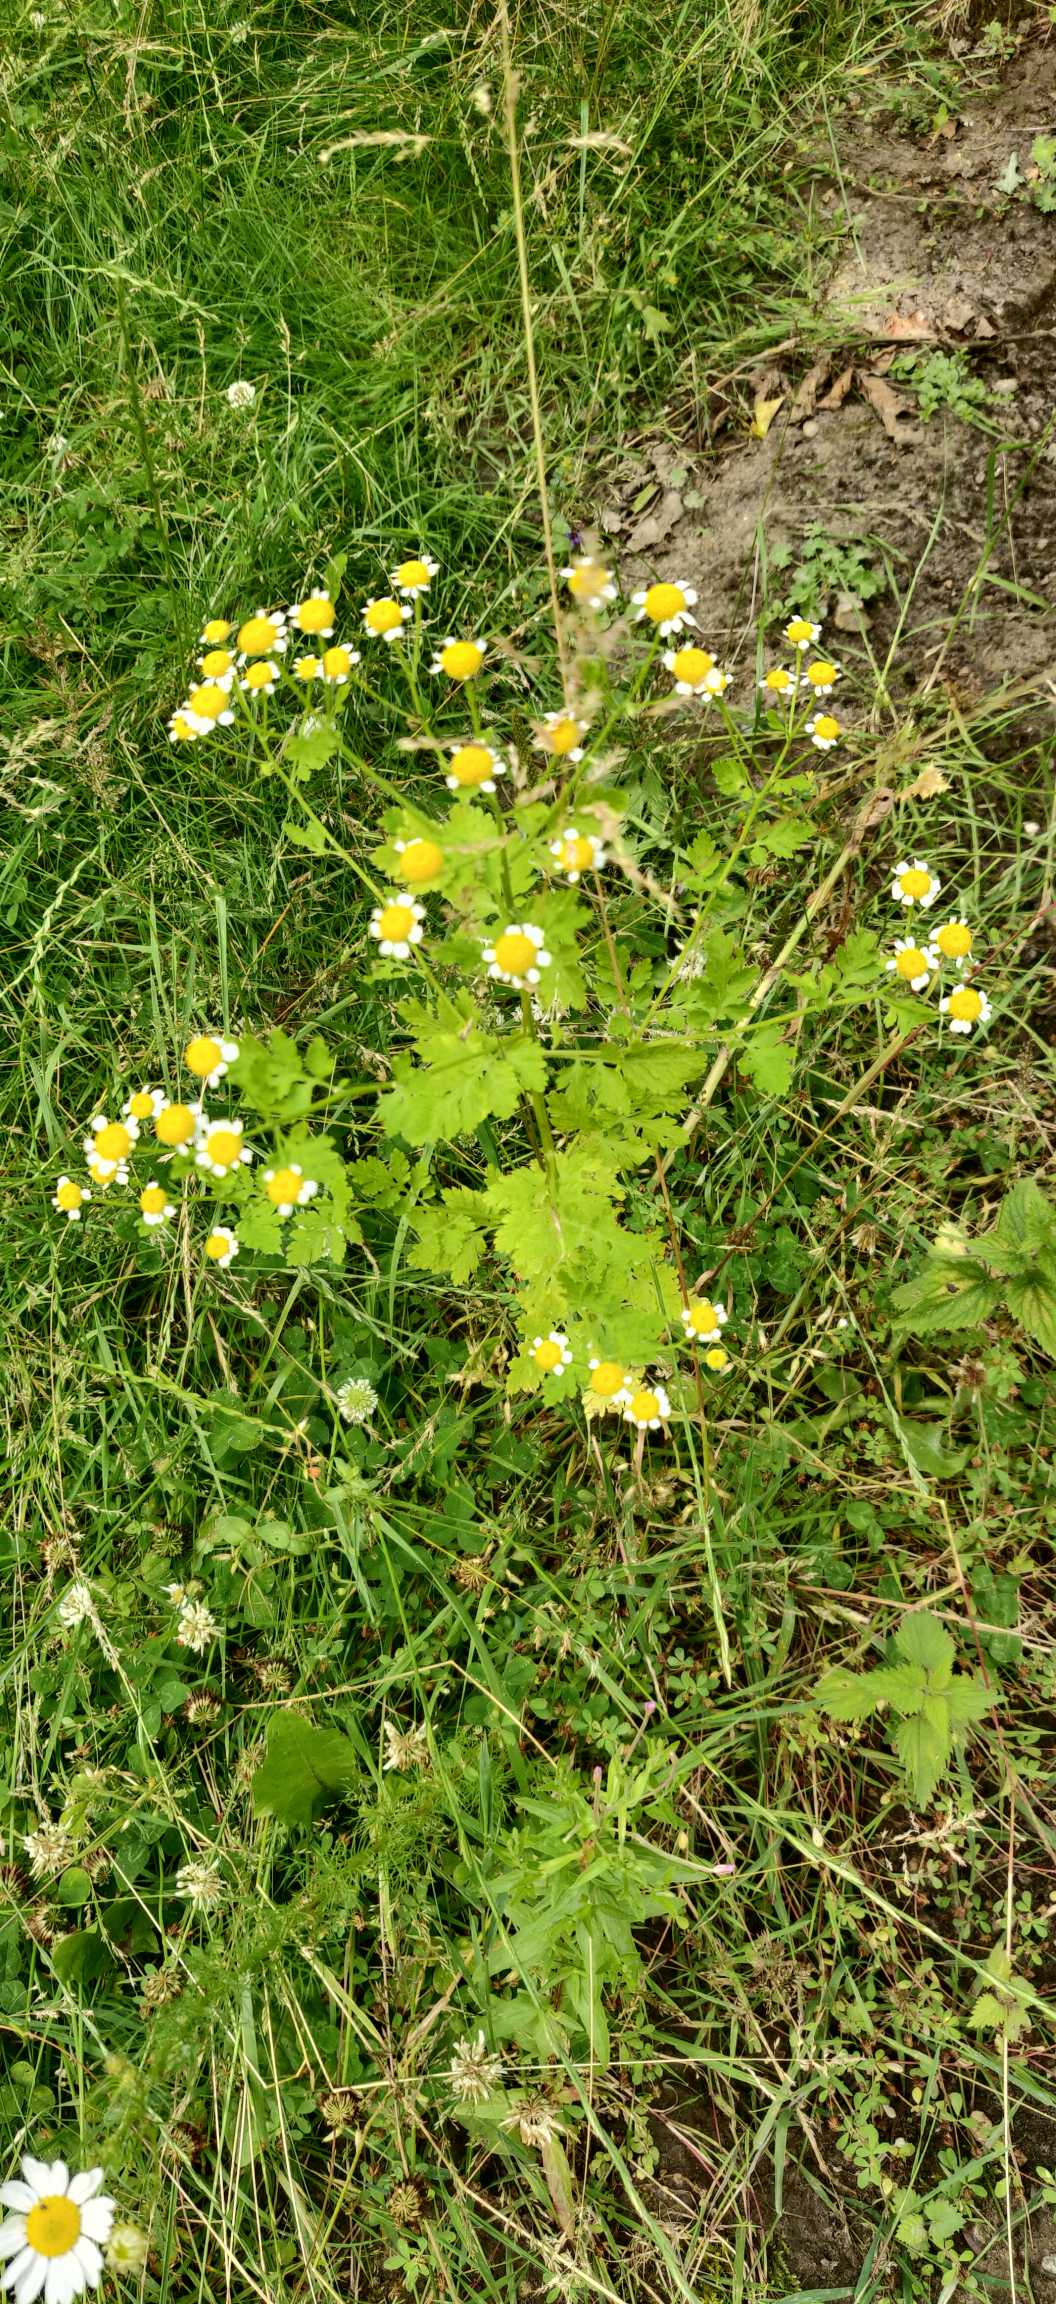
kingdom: Plantae
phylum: Tracheophyta
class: Magnoliopsida
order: Asterales
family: Asteraceae
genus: Tanacetum
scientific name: Tanacetum parthenium
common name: Matrem
